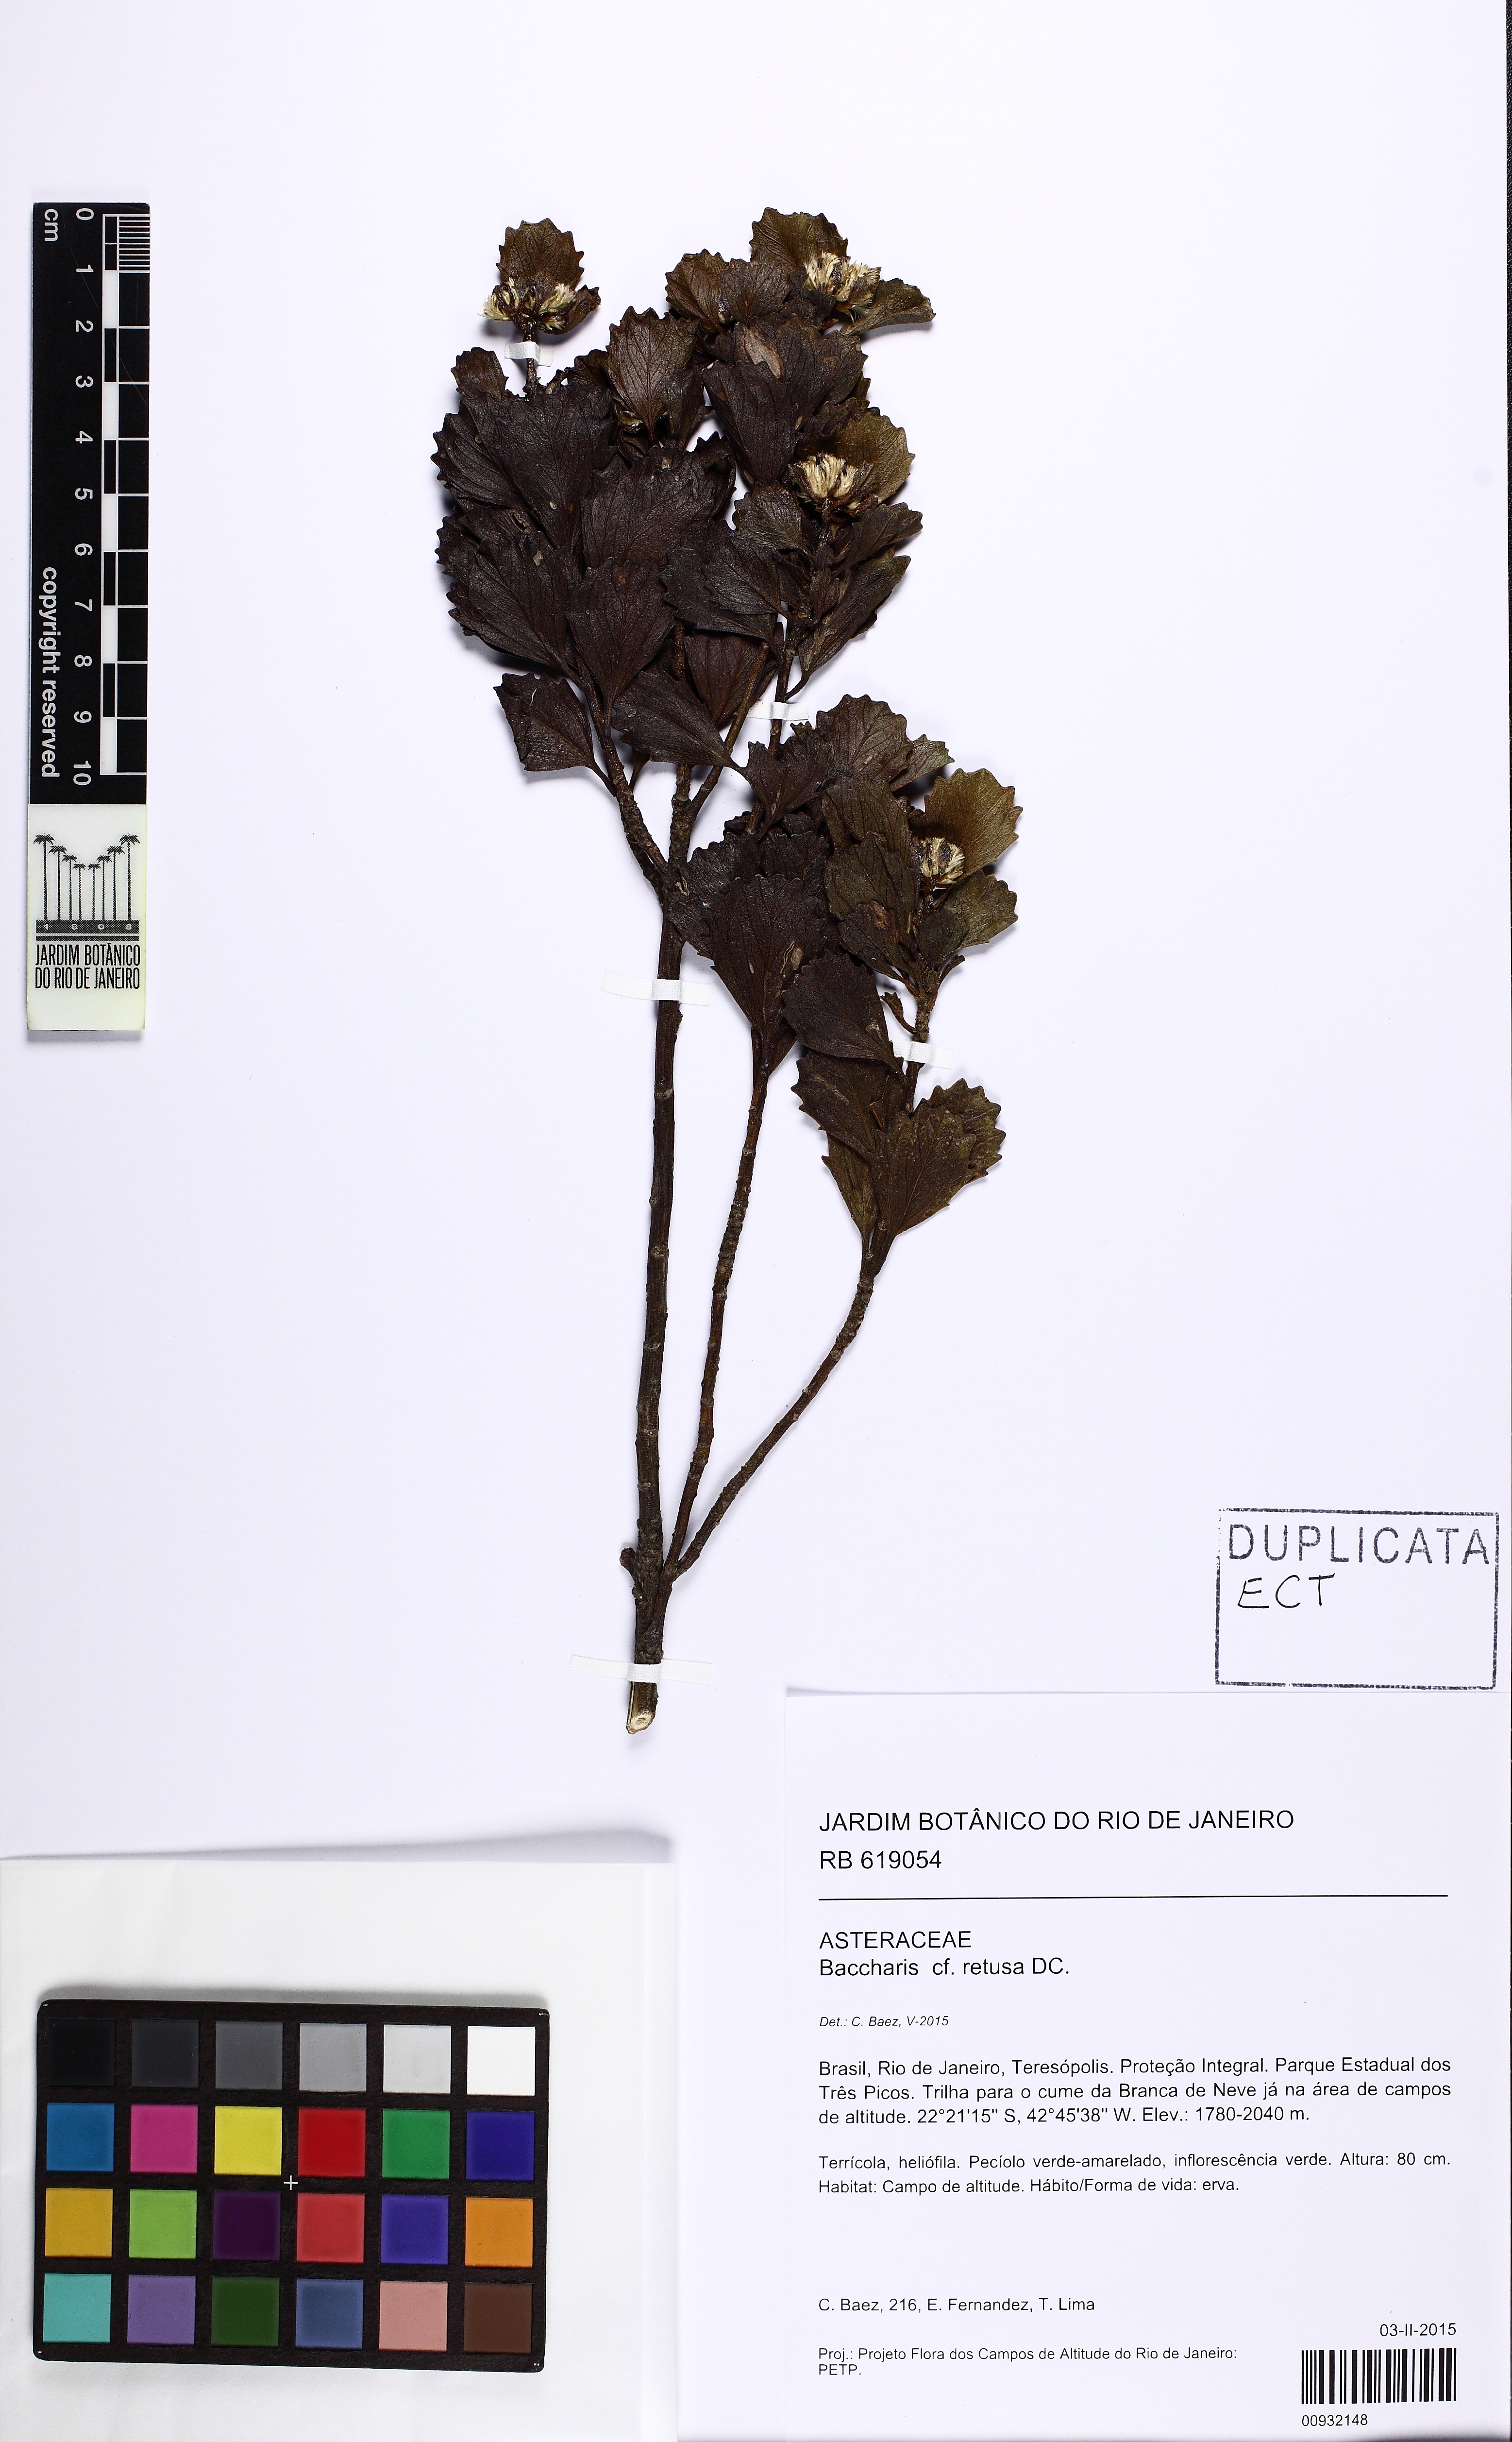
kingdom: Plantae
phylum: Tracheophyta
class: Magnoliopsida
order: Asterales
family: Asteraceae
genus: Baccharis
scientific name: Baccharis retusa
